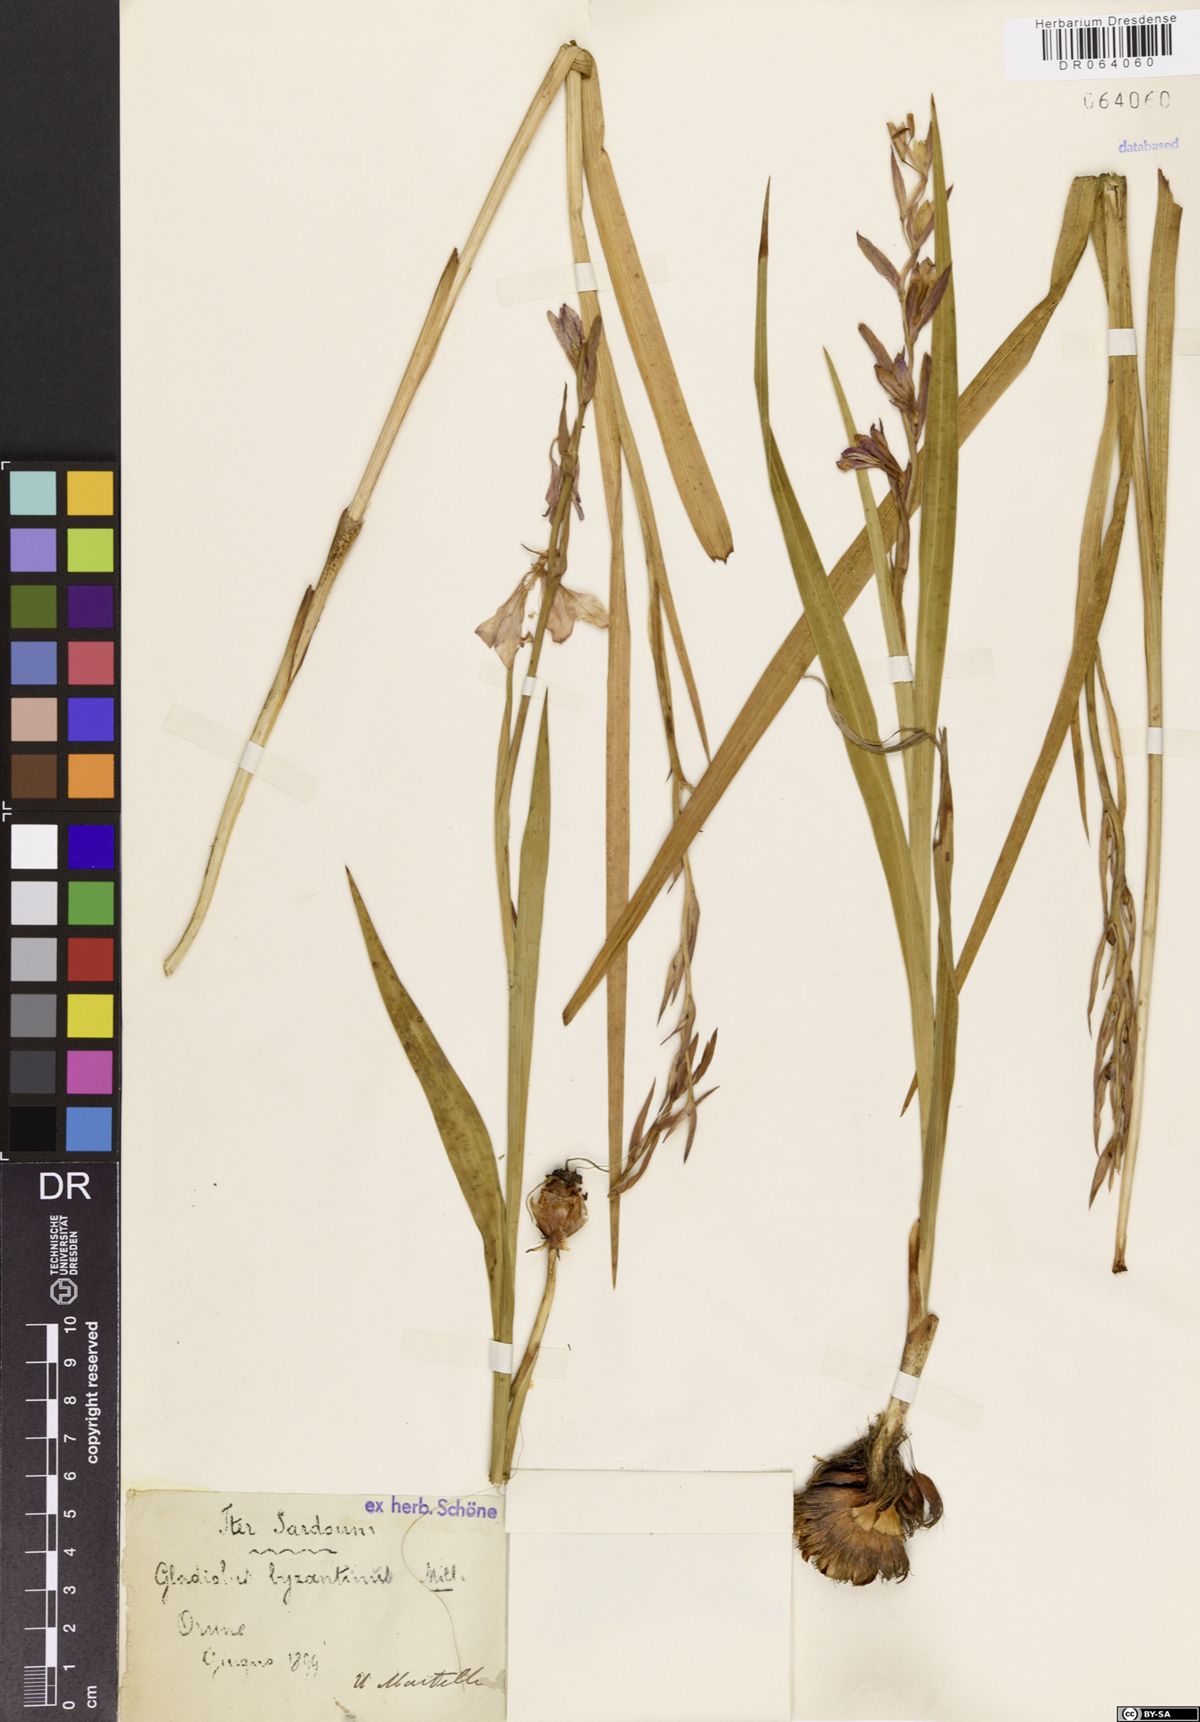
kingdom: Plantae
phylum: Tracheophyta
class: Liliopsida
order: Asparagales
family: Iridaceae
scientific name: Iridaceae
